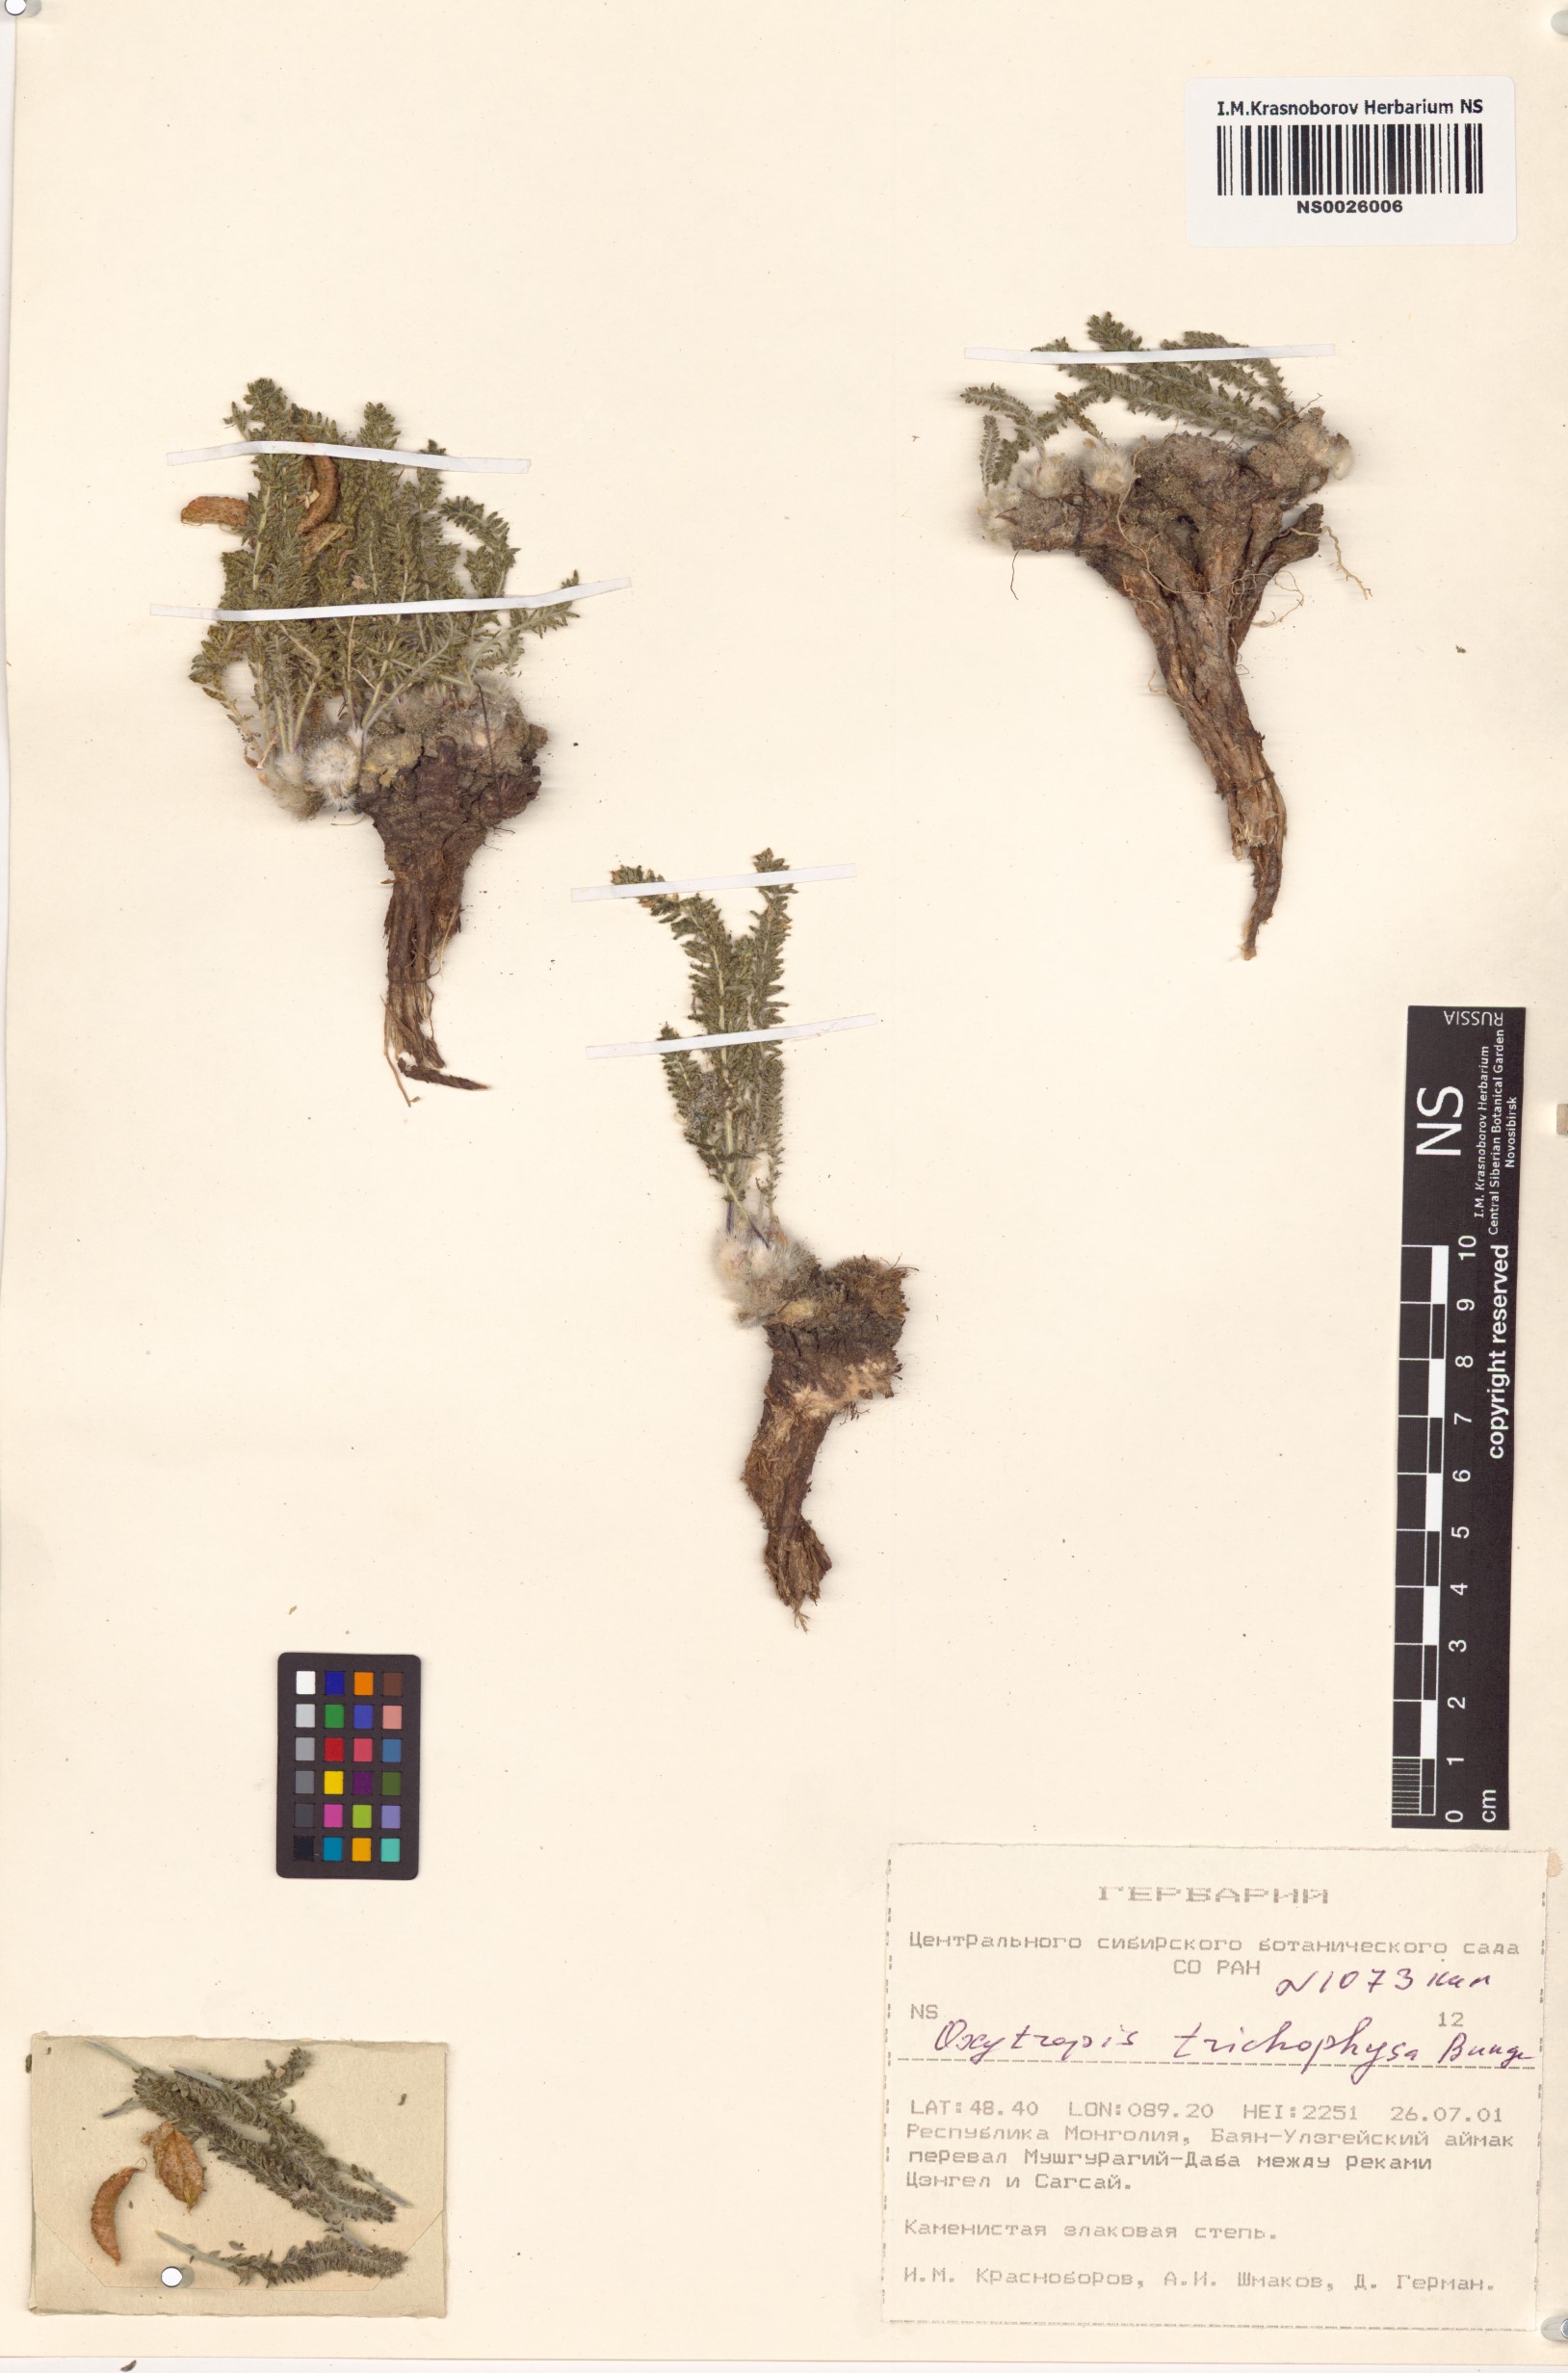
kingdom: Plantae
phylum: Tracheophyta
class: Magnoliopsida
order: Fabales
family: Fabaceae
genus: Oxytropis
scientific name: Oxytropis trichophysa
